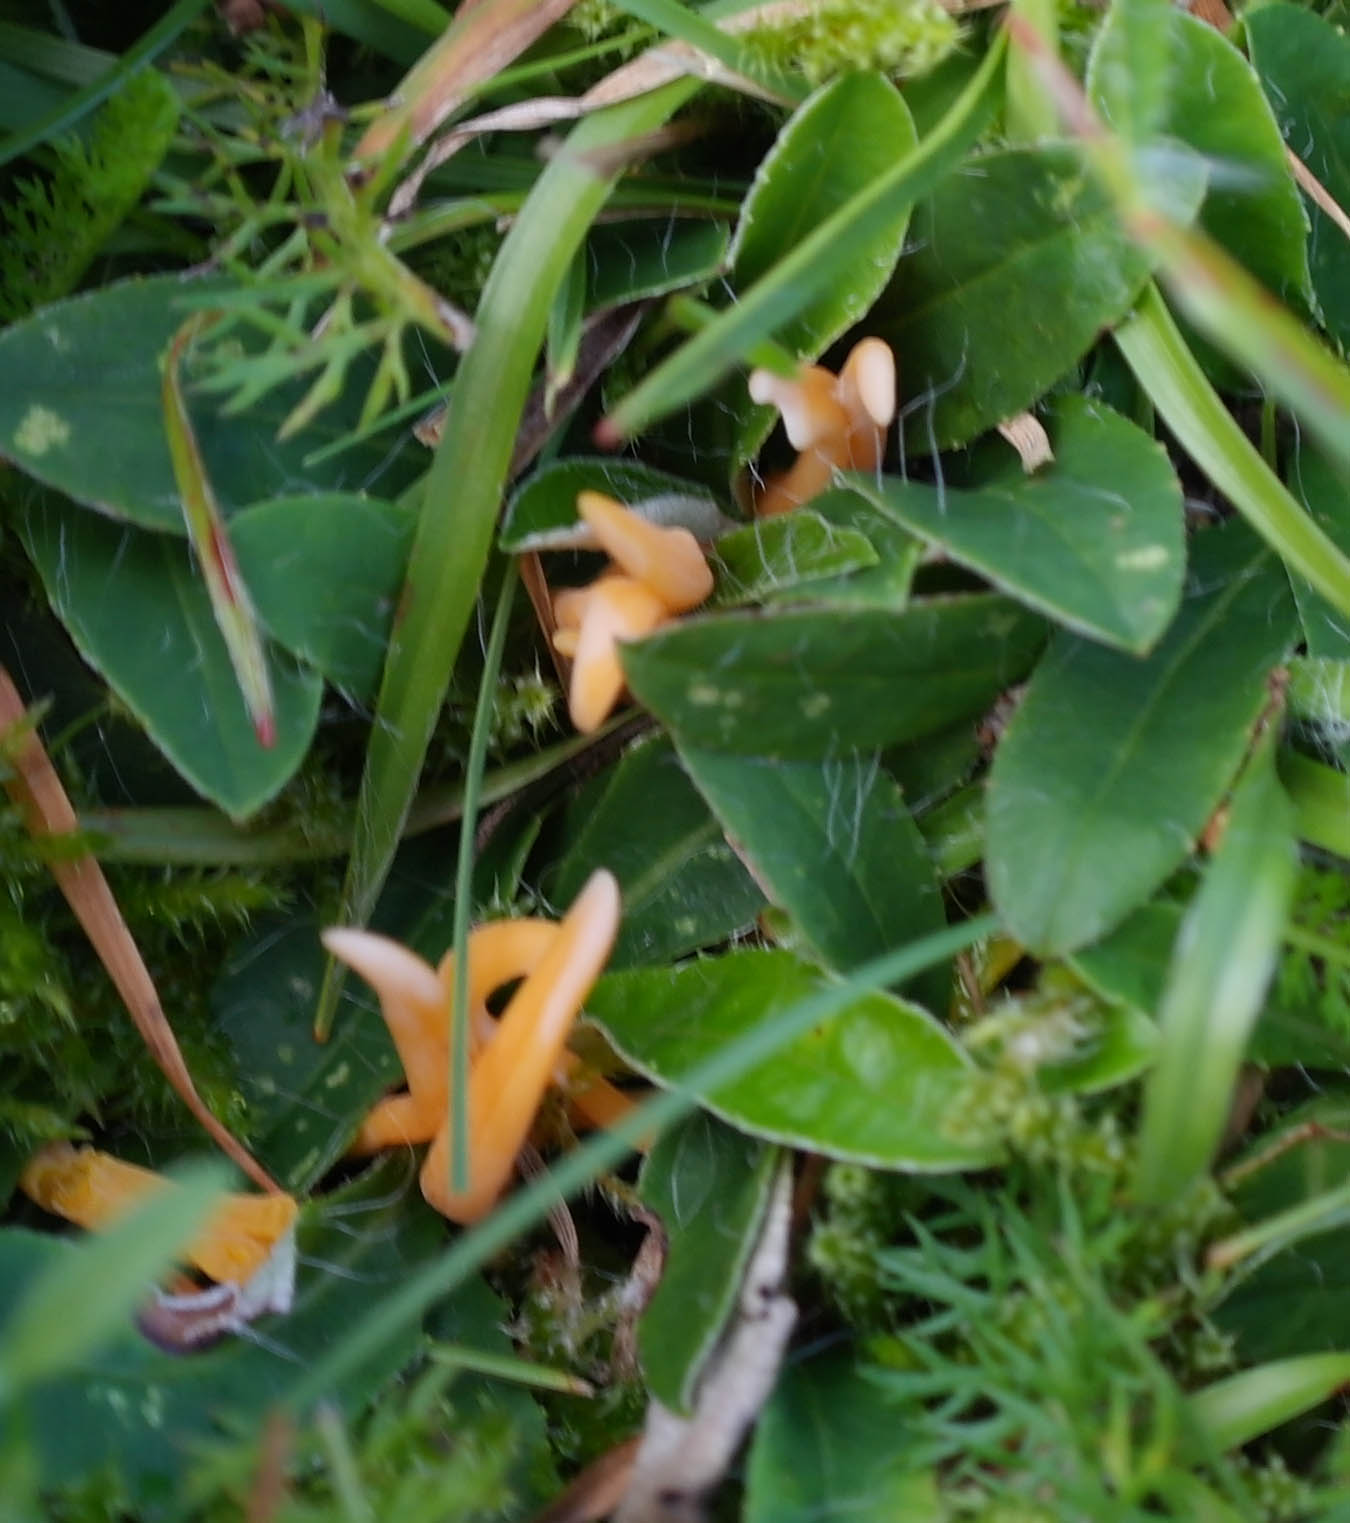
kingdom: Fungi
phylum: Basidiomycota
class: Agaricomycetes
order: Agaricales
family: Clavariaceae
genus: Clavulinopsis
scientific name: Clavulinopsis luteoalba
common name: abrikos-køllesvamp
